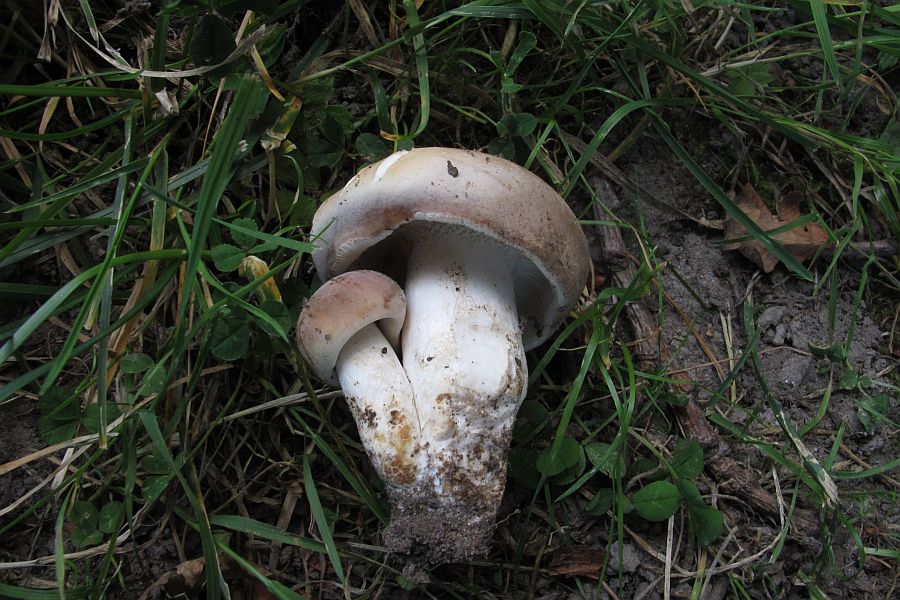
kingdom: Fungi
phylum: Basidiomycota
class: Agaricomycetes
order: Russulales
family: Russulaceae
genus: Russula
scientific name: Russula vesca
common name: spiselig skørhat
